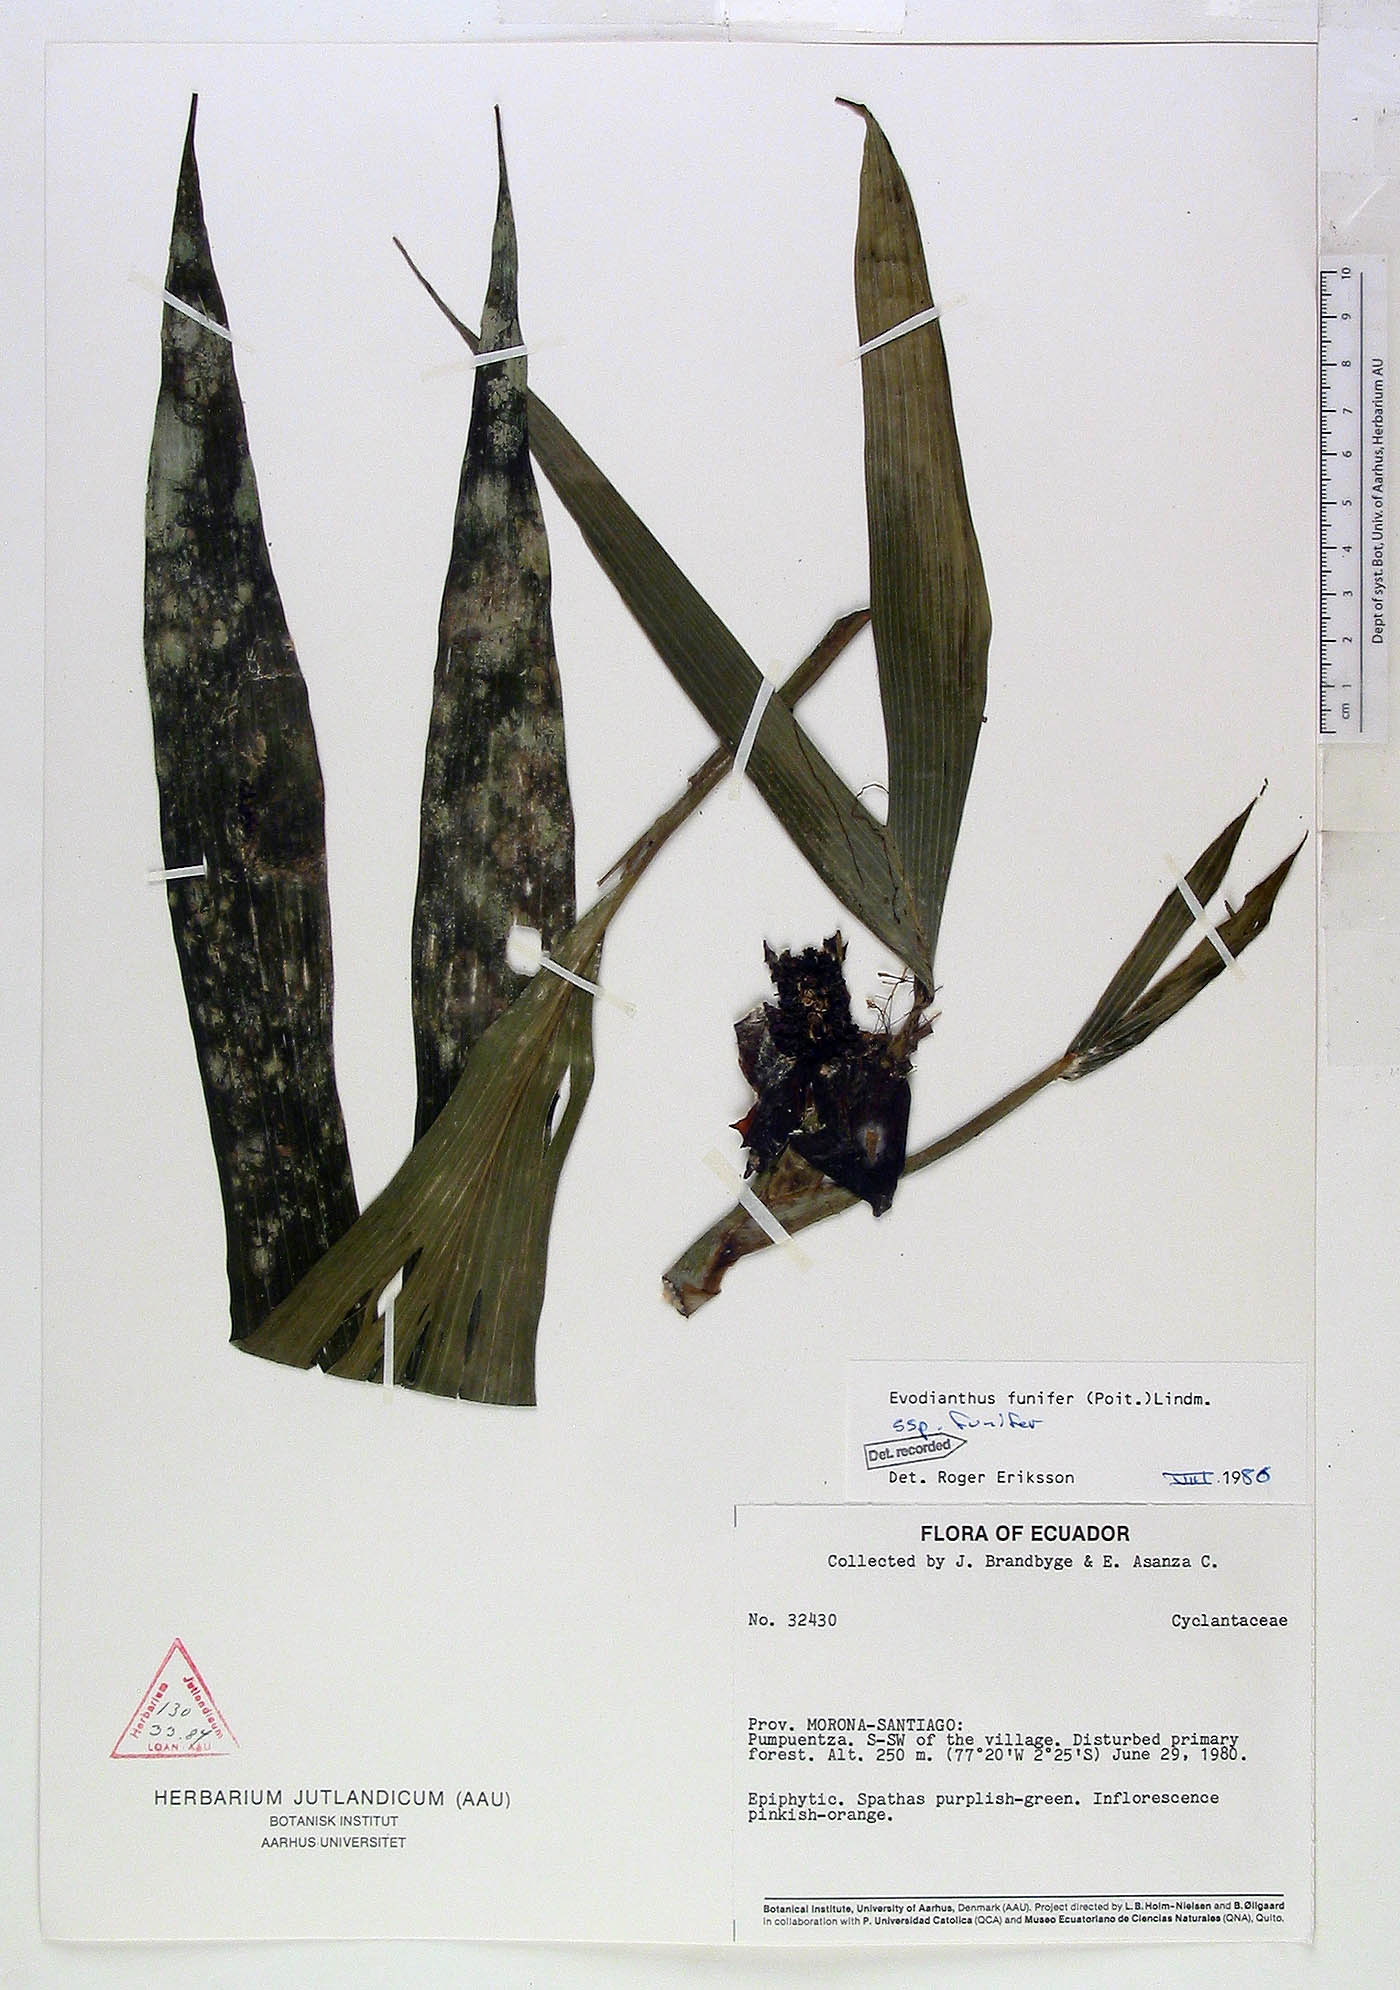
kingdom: Plantae
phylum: Tracheophyta
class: Liliopsida
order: Pandanales
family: Cyclanthaceae
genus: Evodianthus
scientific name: Evodianthus funifer
